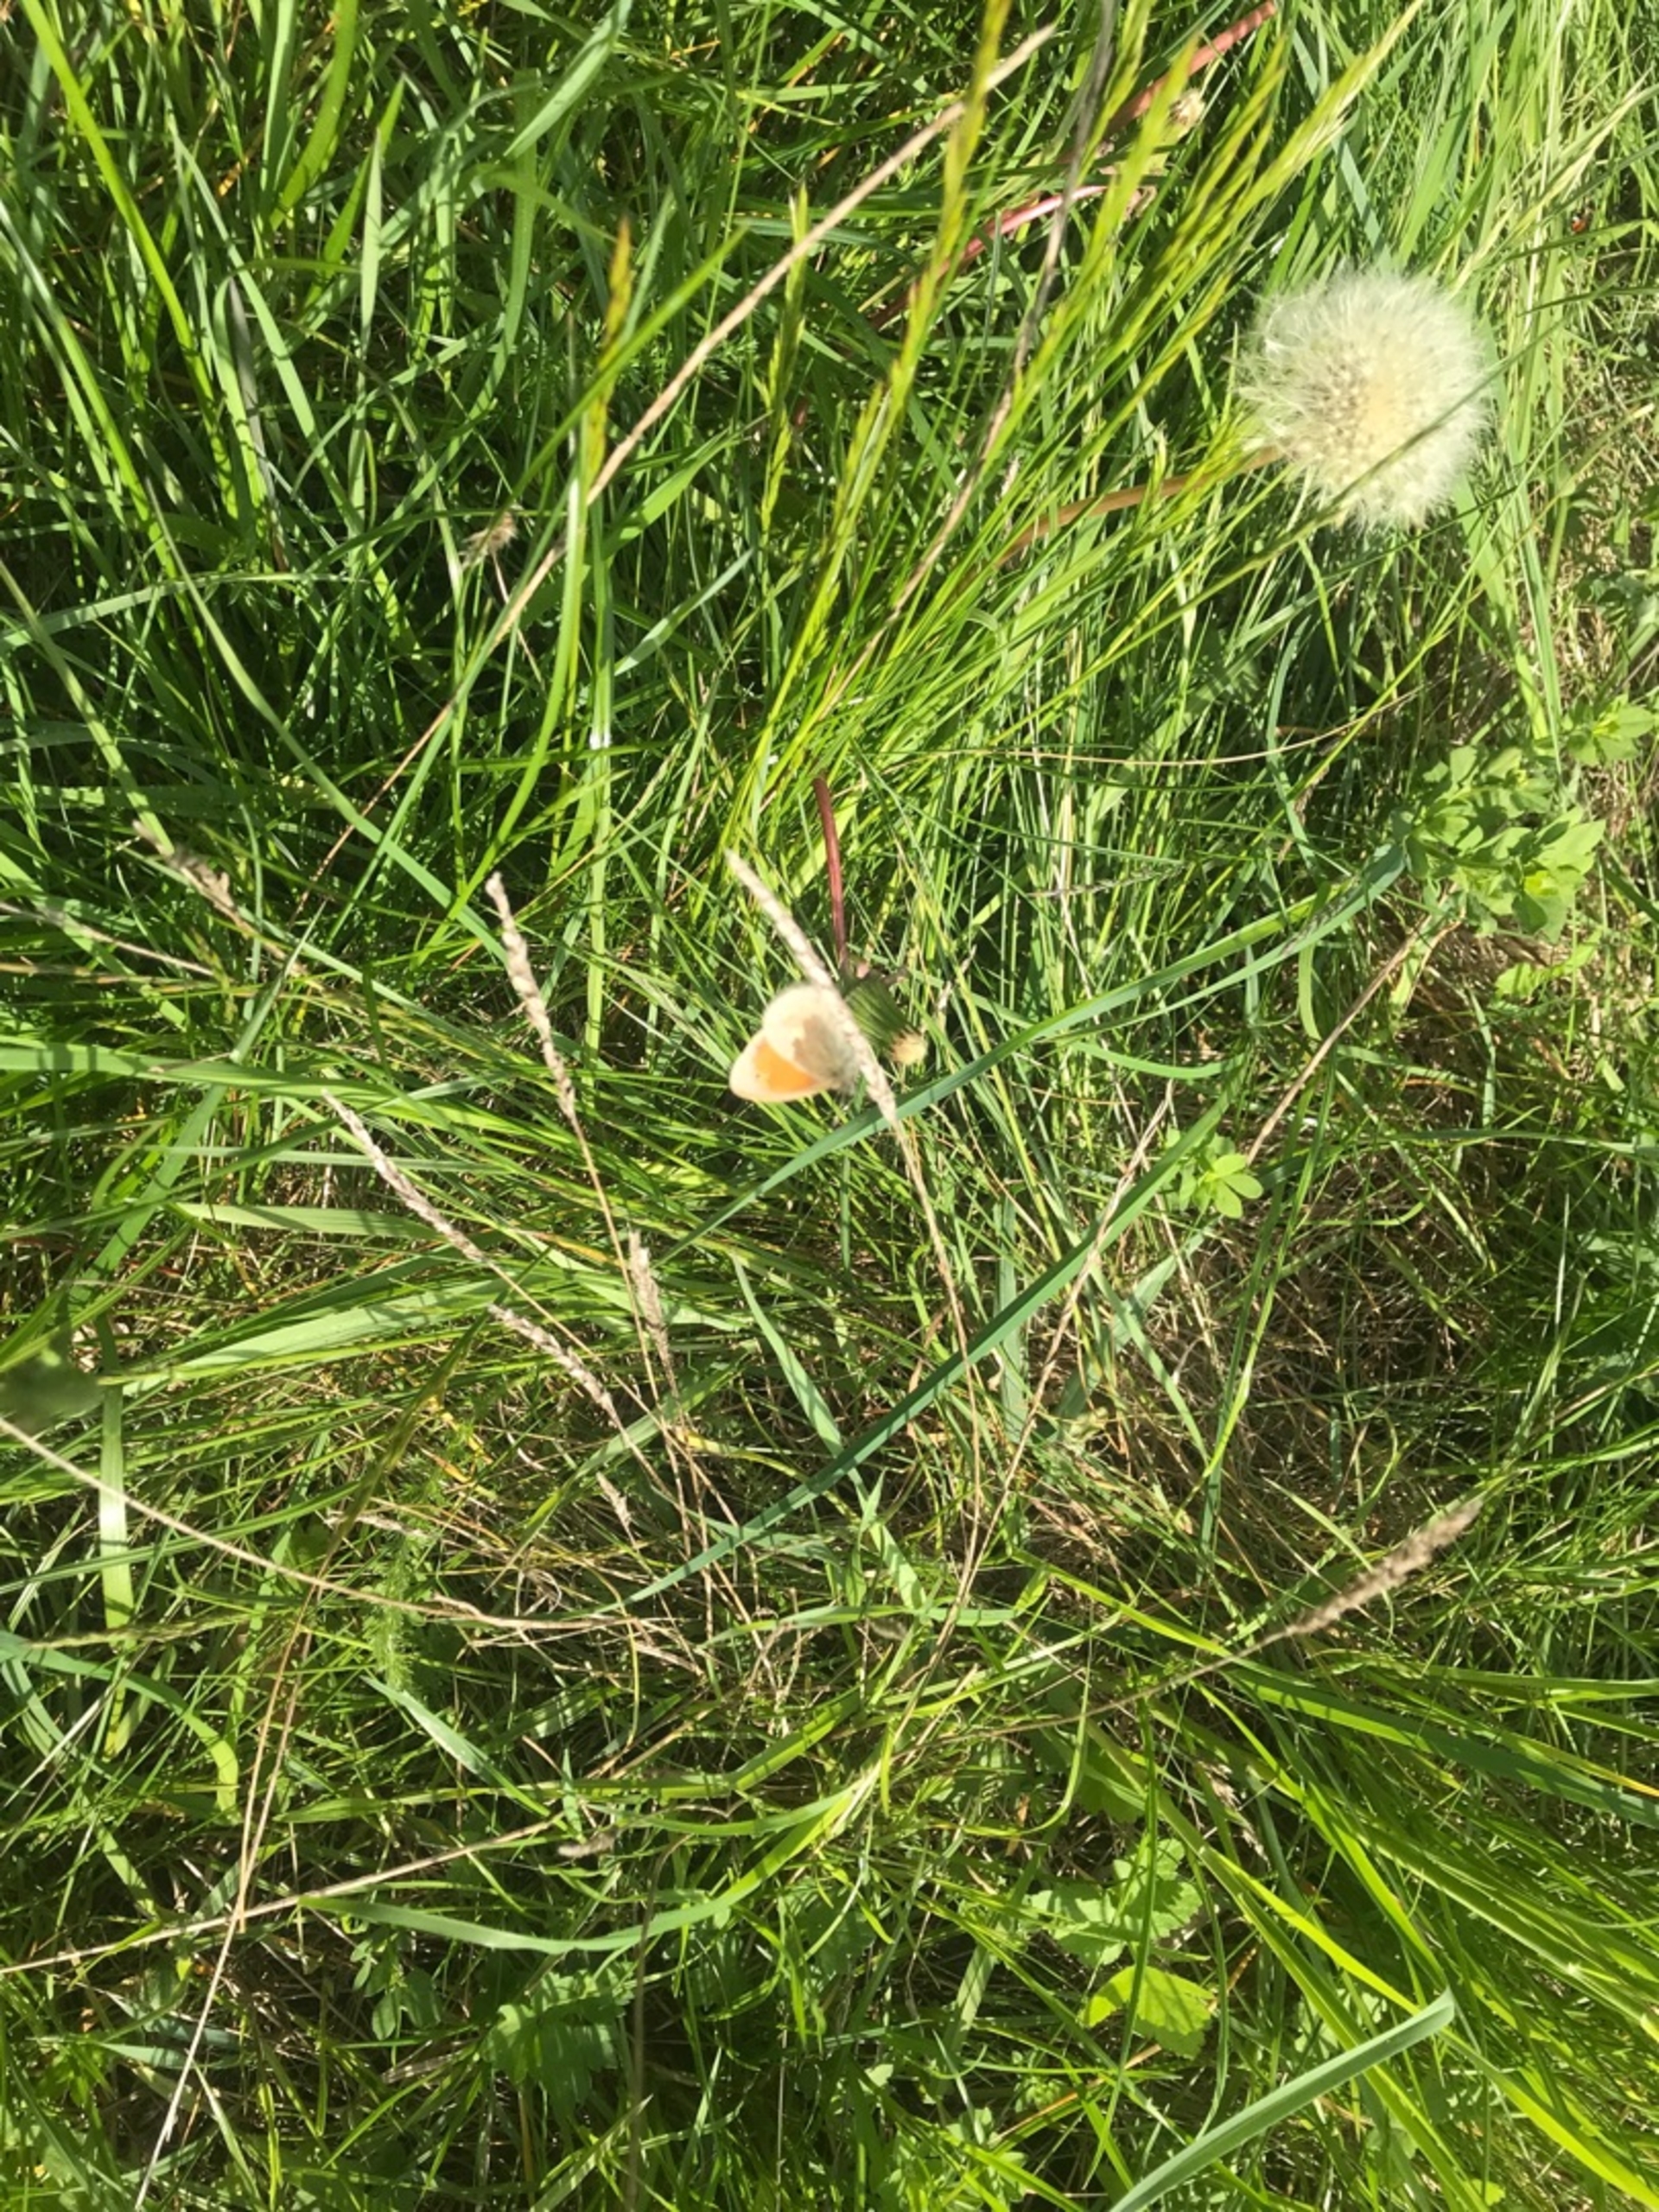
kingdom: Animalia
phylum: Arthropoda
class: Insecta
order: Lepidoptera
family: Nymphalidae
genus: Coenonympha
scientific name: Coenonympha pamphilus
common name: Okkergul randøje
